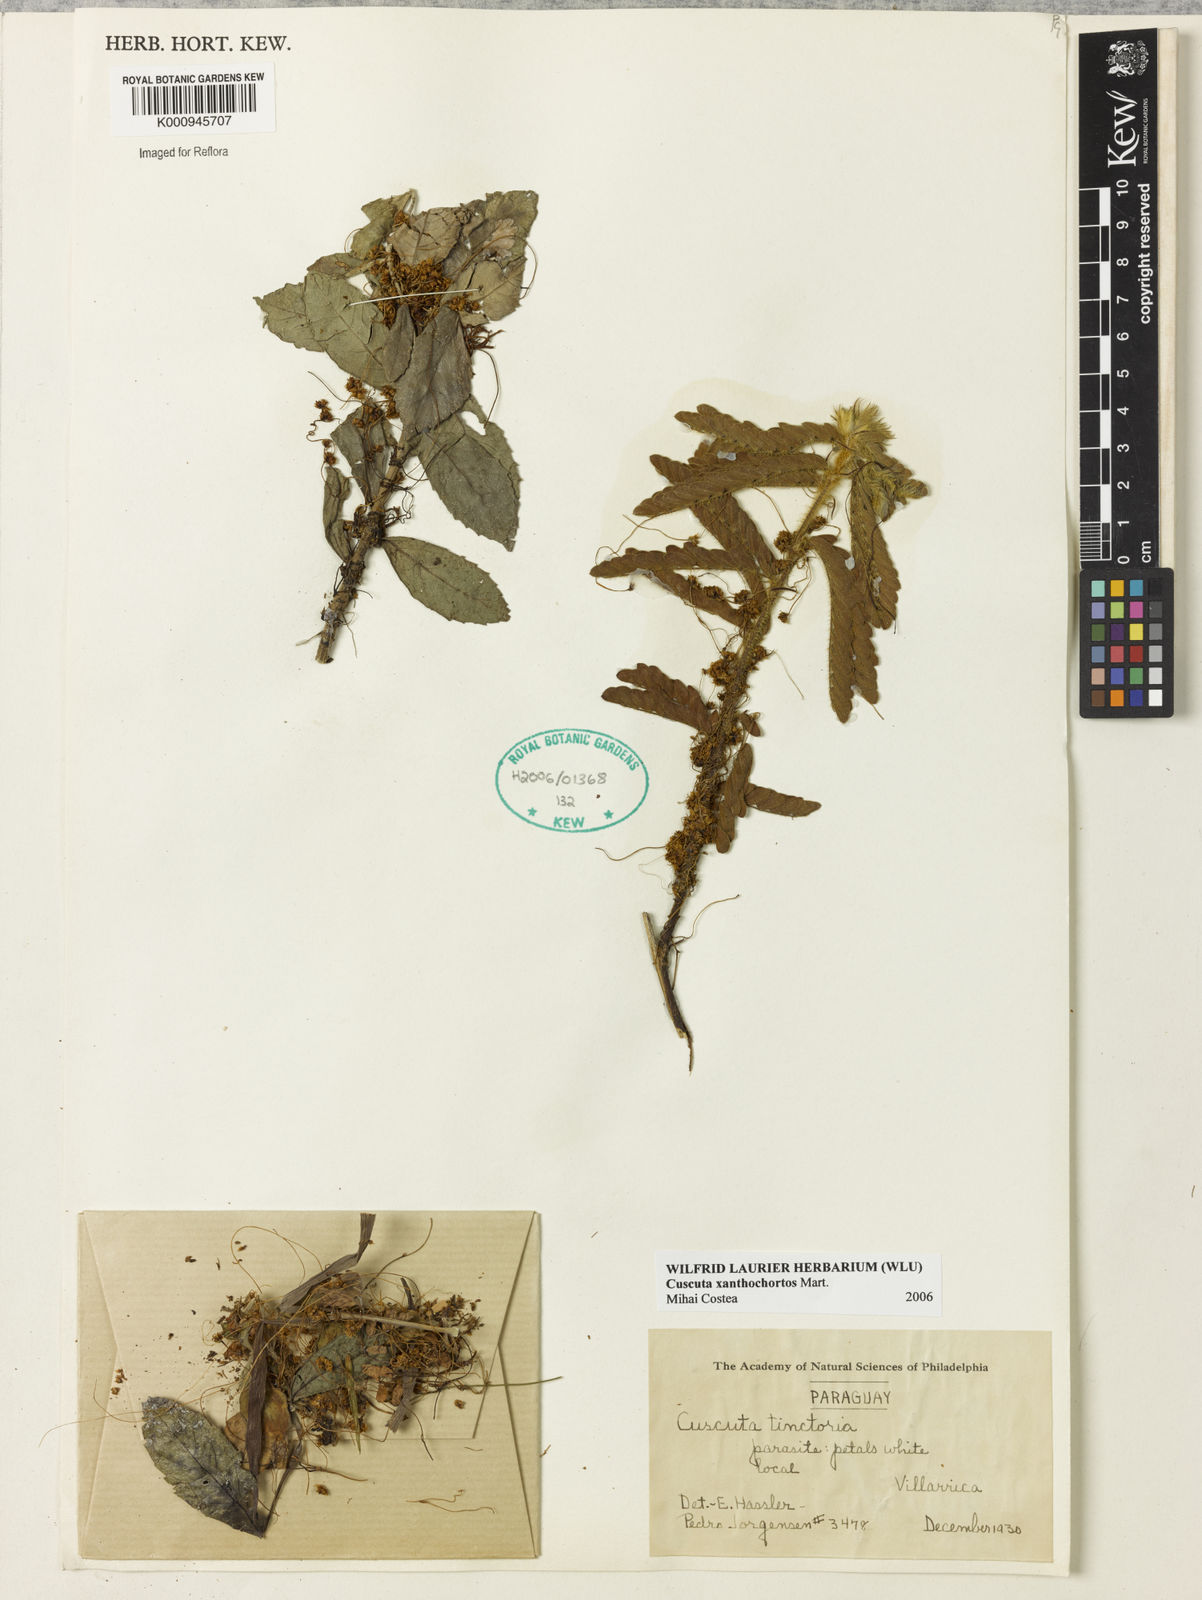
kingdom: Plantae
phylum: Tracheophyta
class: Magnoliopsida
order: Solanales
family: Convolvulaceae
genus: Cuscuta
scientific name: Cuscuta
